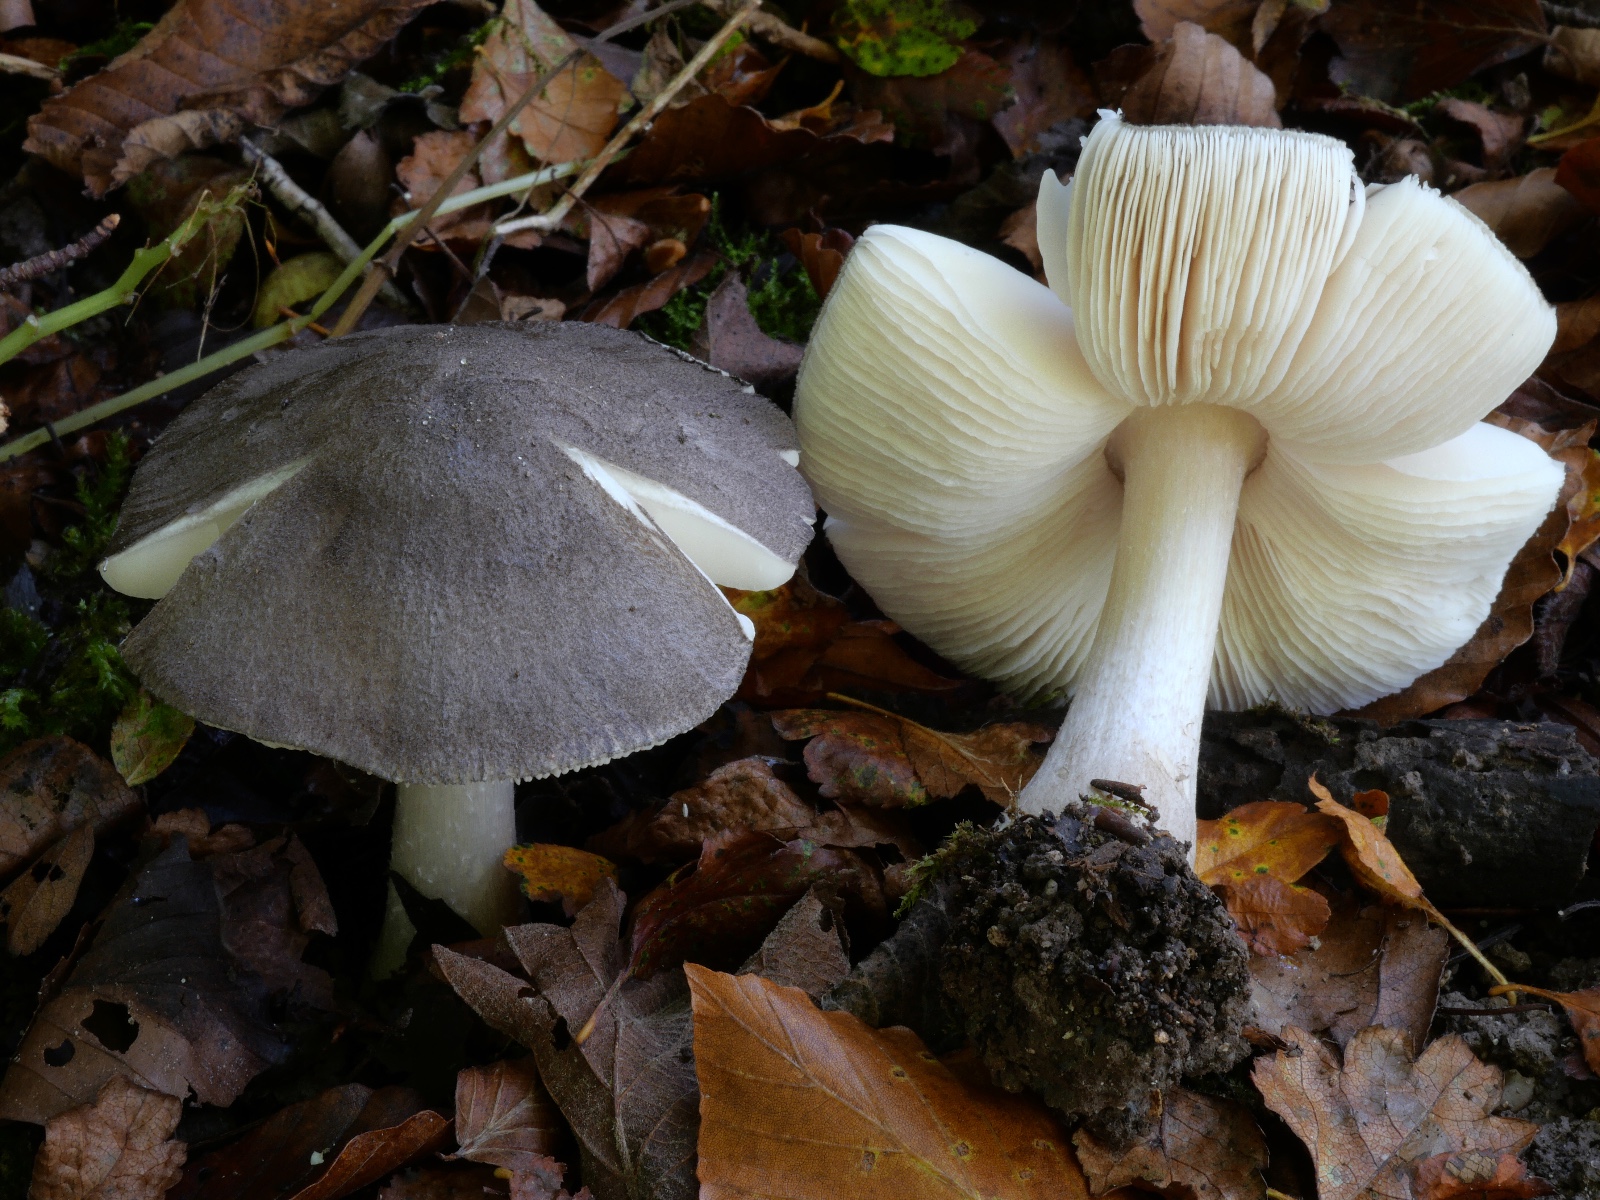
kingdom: Fungi
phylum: Basidiomycota
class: Agaricomycetes
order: Agaricales
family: Pluteaceae
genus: Pluteus
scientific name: Pluteus
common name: gråfibret skærmhat
